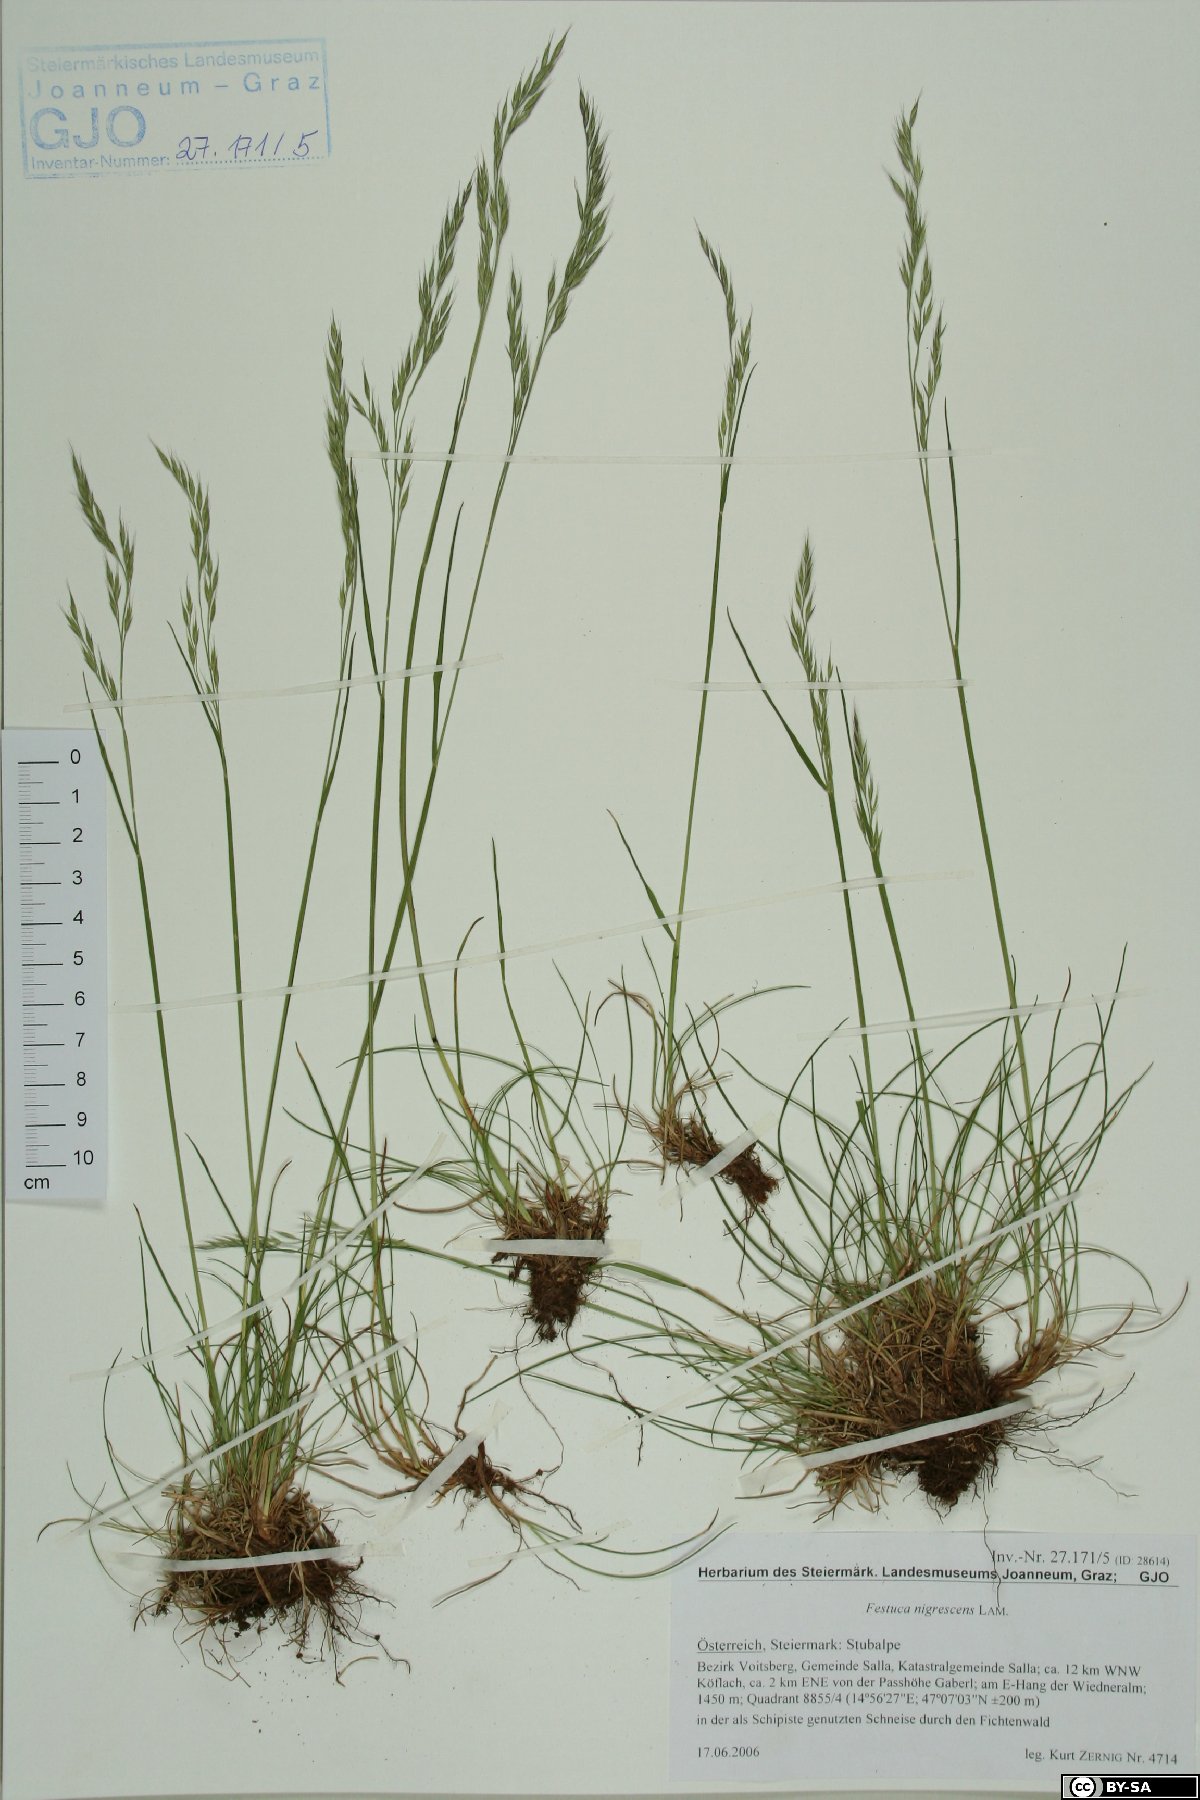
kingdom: Plantae
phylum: Tracheophyta
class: Liliopsida
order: Poales
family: Poaceae
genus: Festuca
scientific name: Festuca nigrescens
